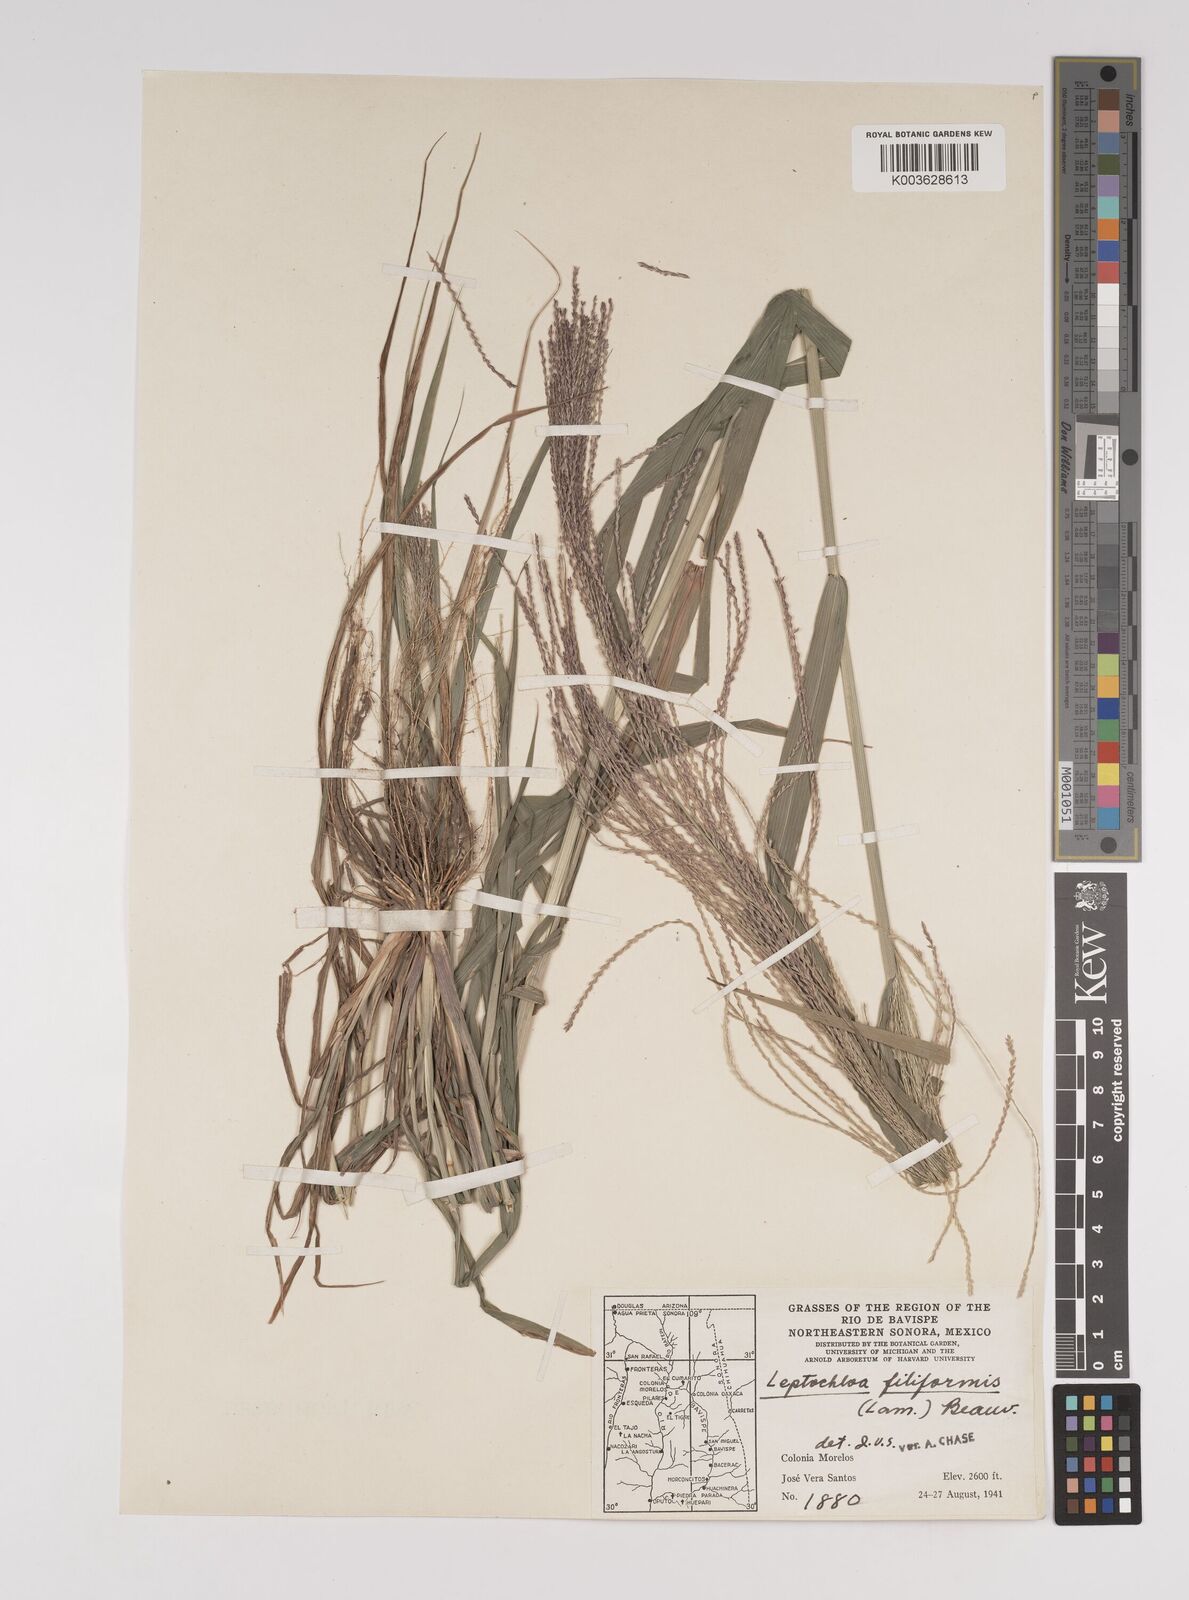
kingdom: Plantae
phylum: Tracheophyta
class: Liliopsida
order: Poales
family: Poaceae
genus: Leptochloa
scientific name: Leptochloa panicea
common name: Mucronate sprangletop
